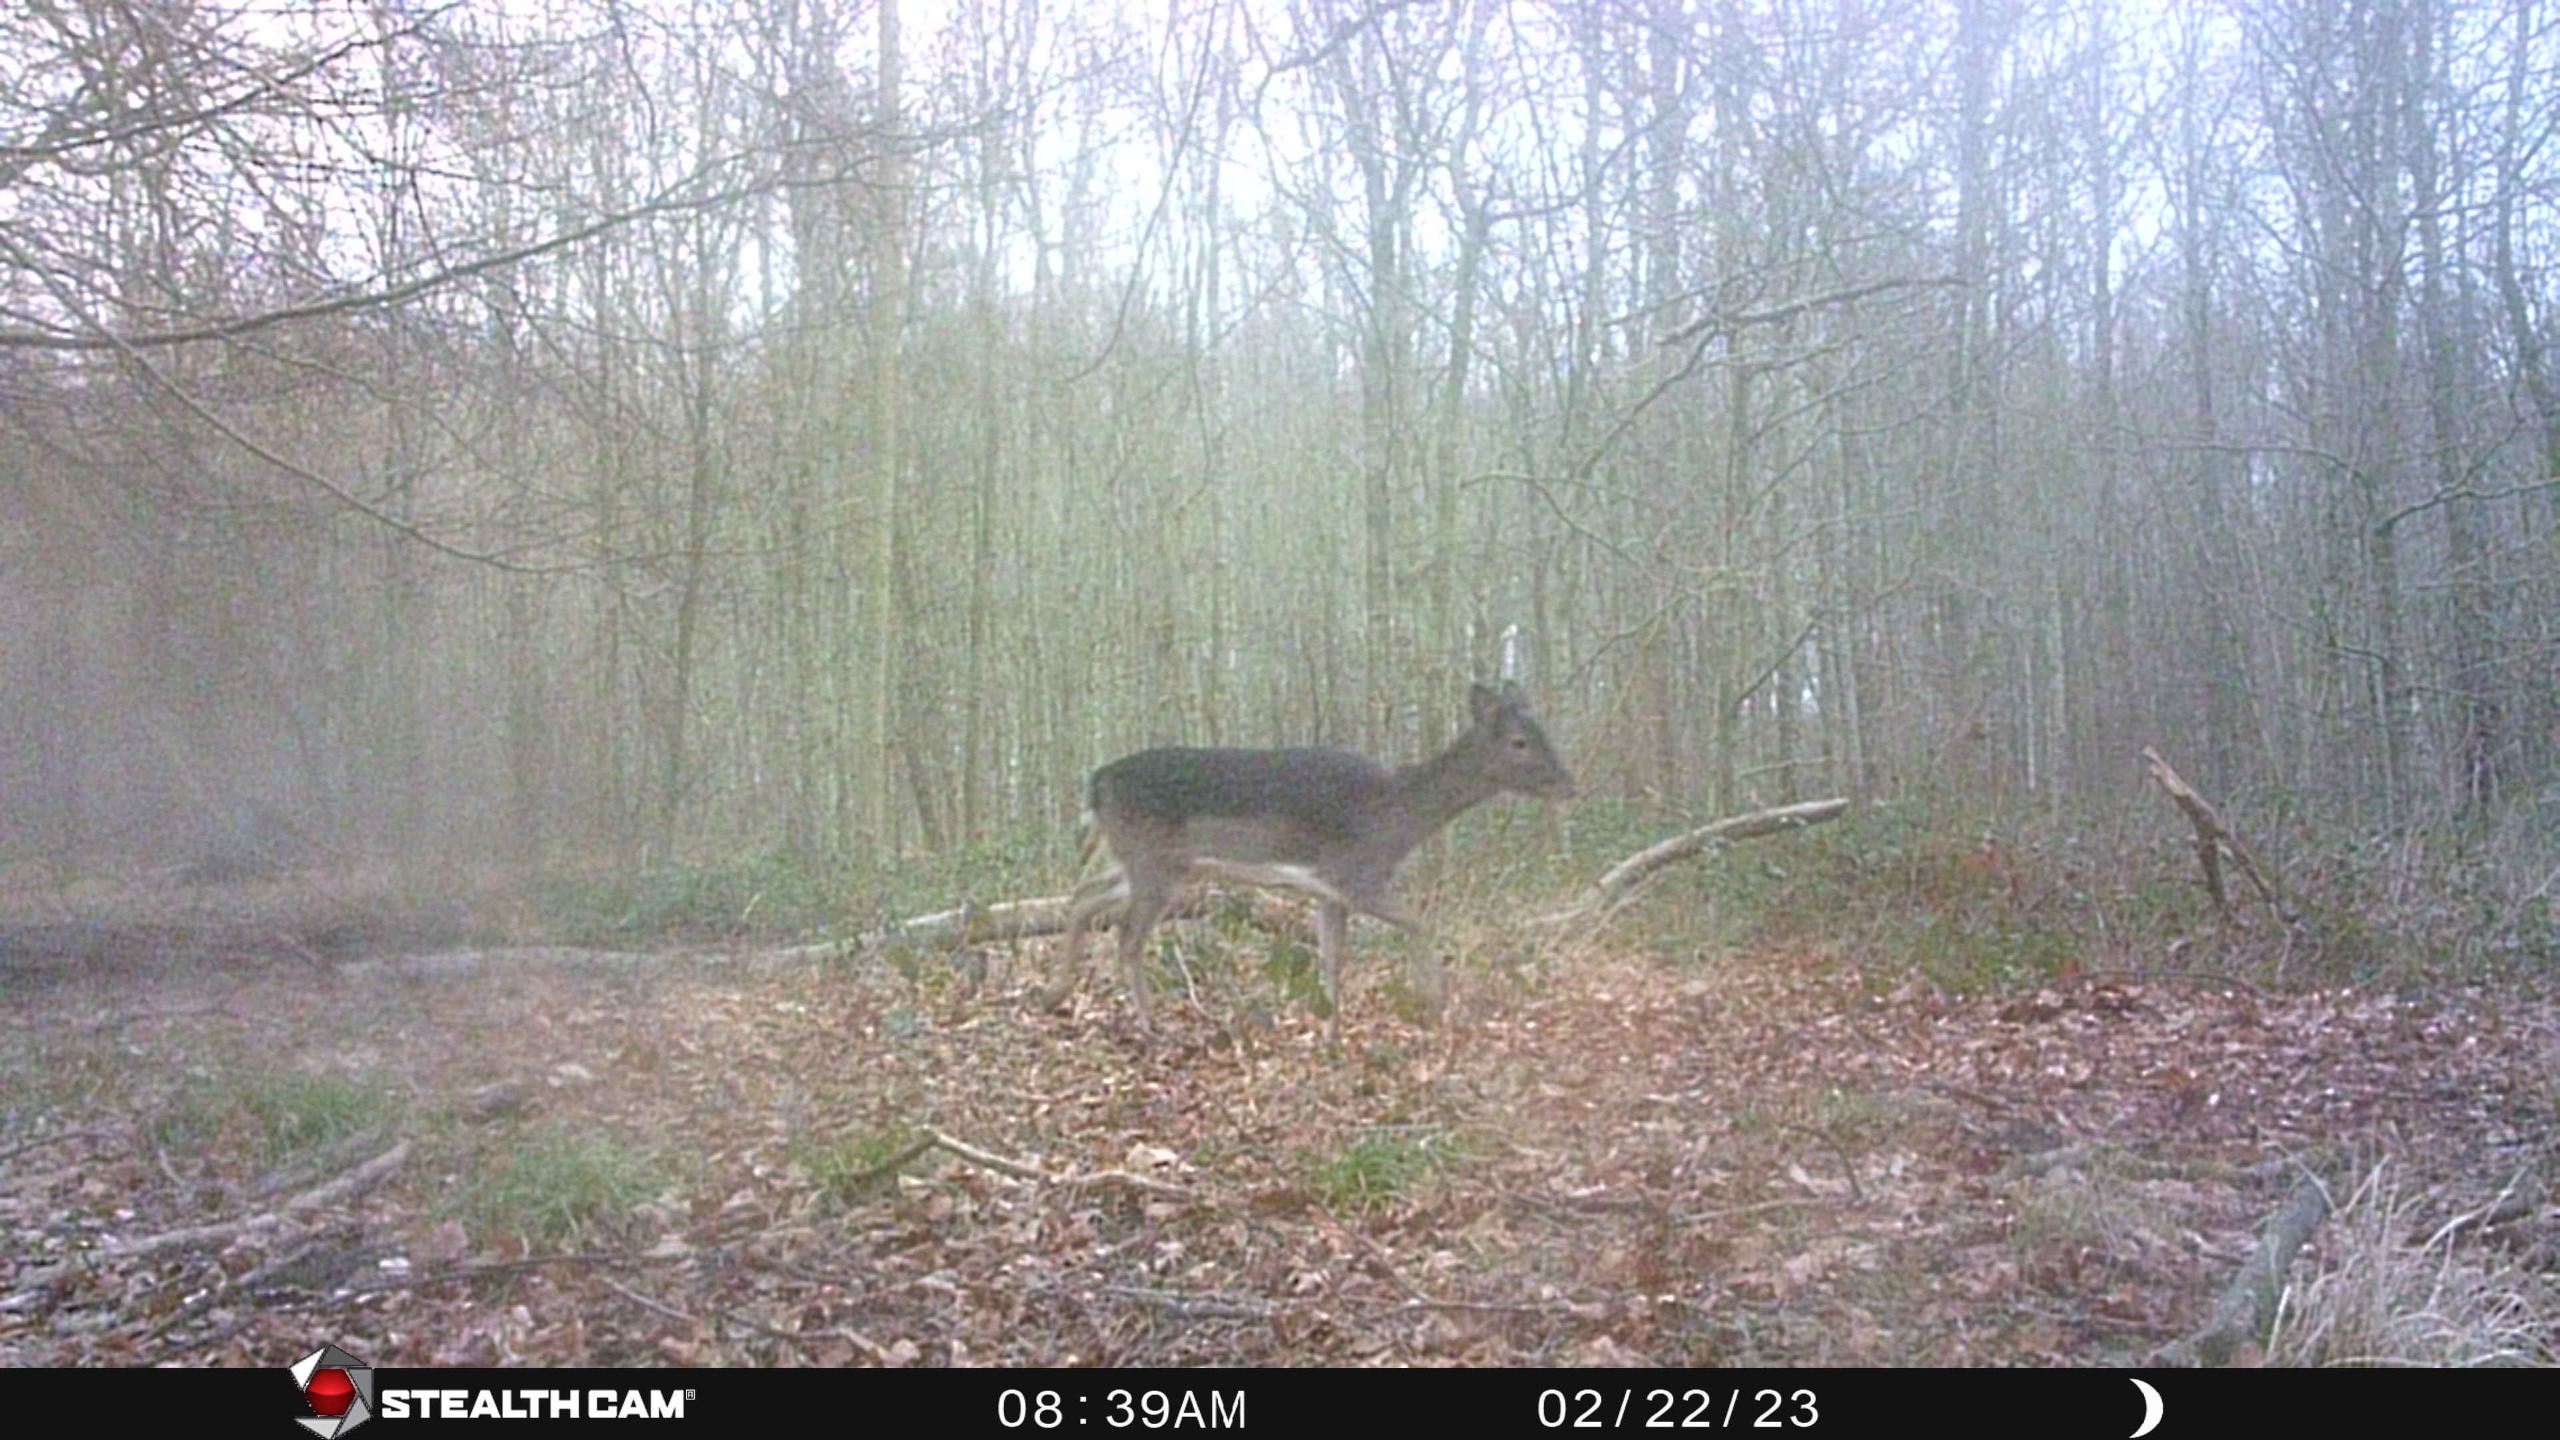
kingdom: Animalia
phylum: Chordata
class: Mammalia
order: Artiodactyla
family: Cervidae
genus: Dama
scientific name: Dama dama
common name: Dådyr
